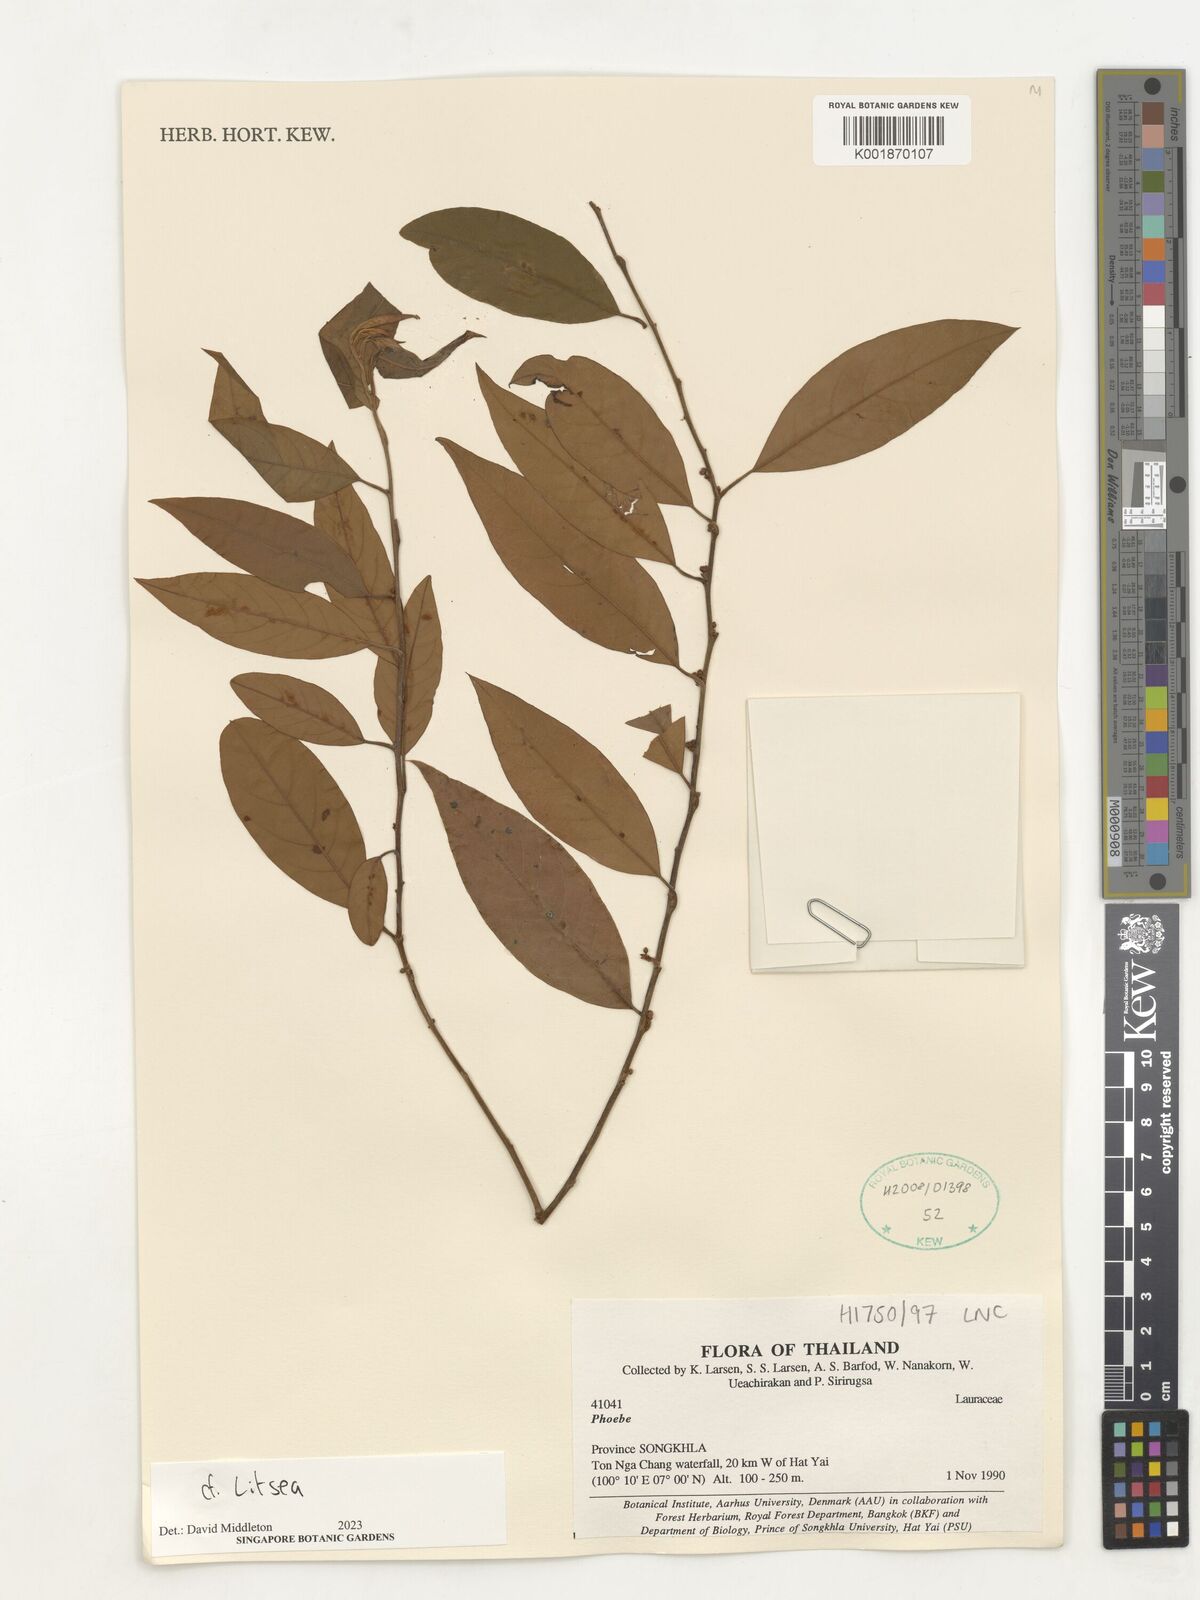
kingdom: Plantae
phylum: Tracheophyta
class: Magnoliopsida
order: Laurales
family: Lauraceae
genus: Litsea
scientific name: Litsea
